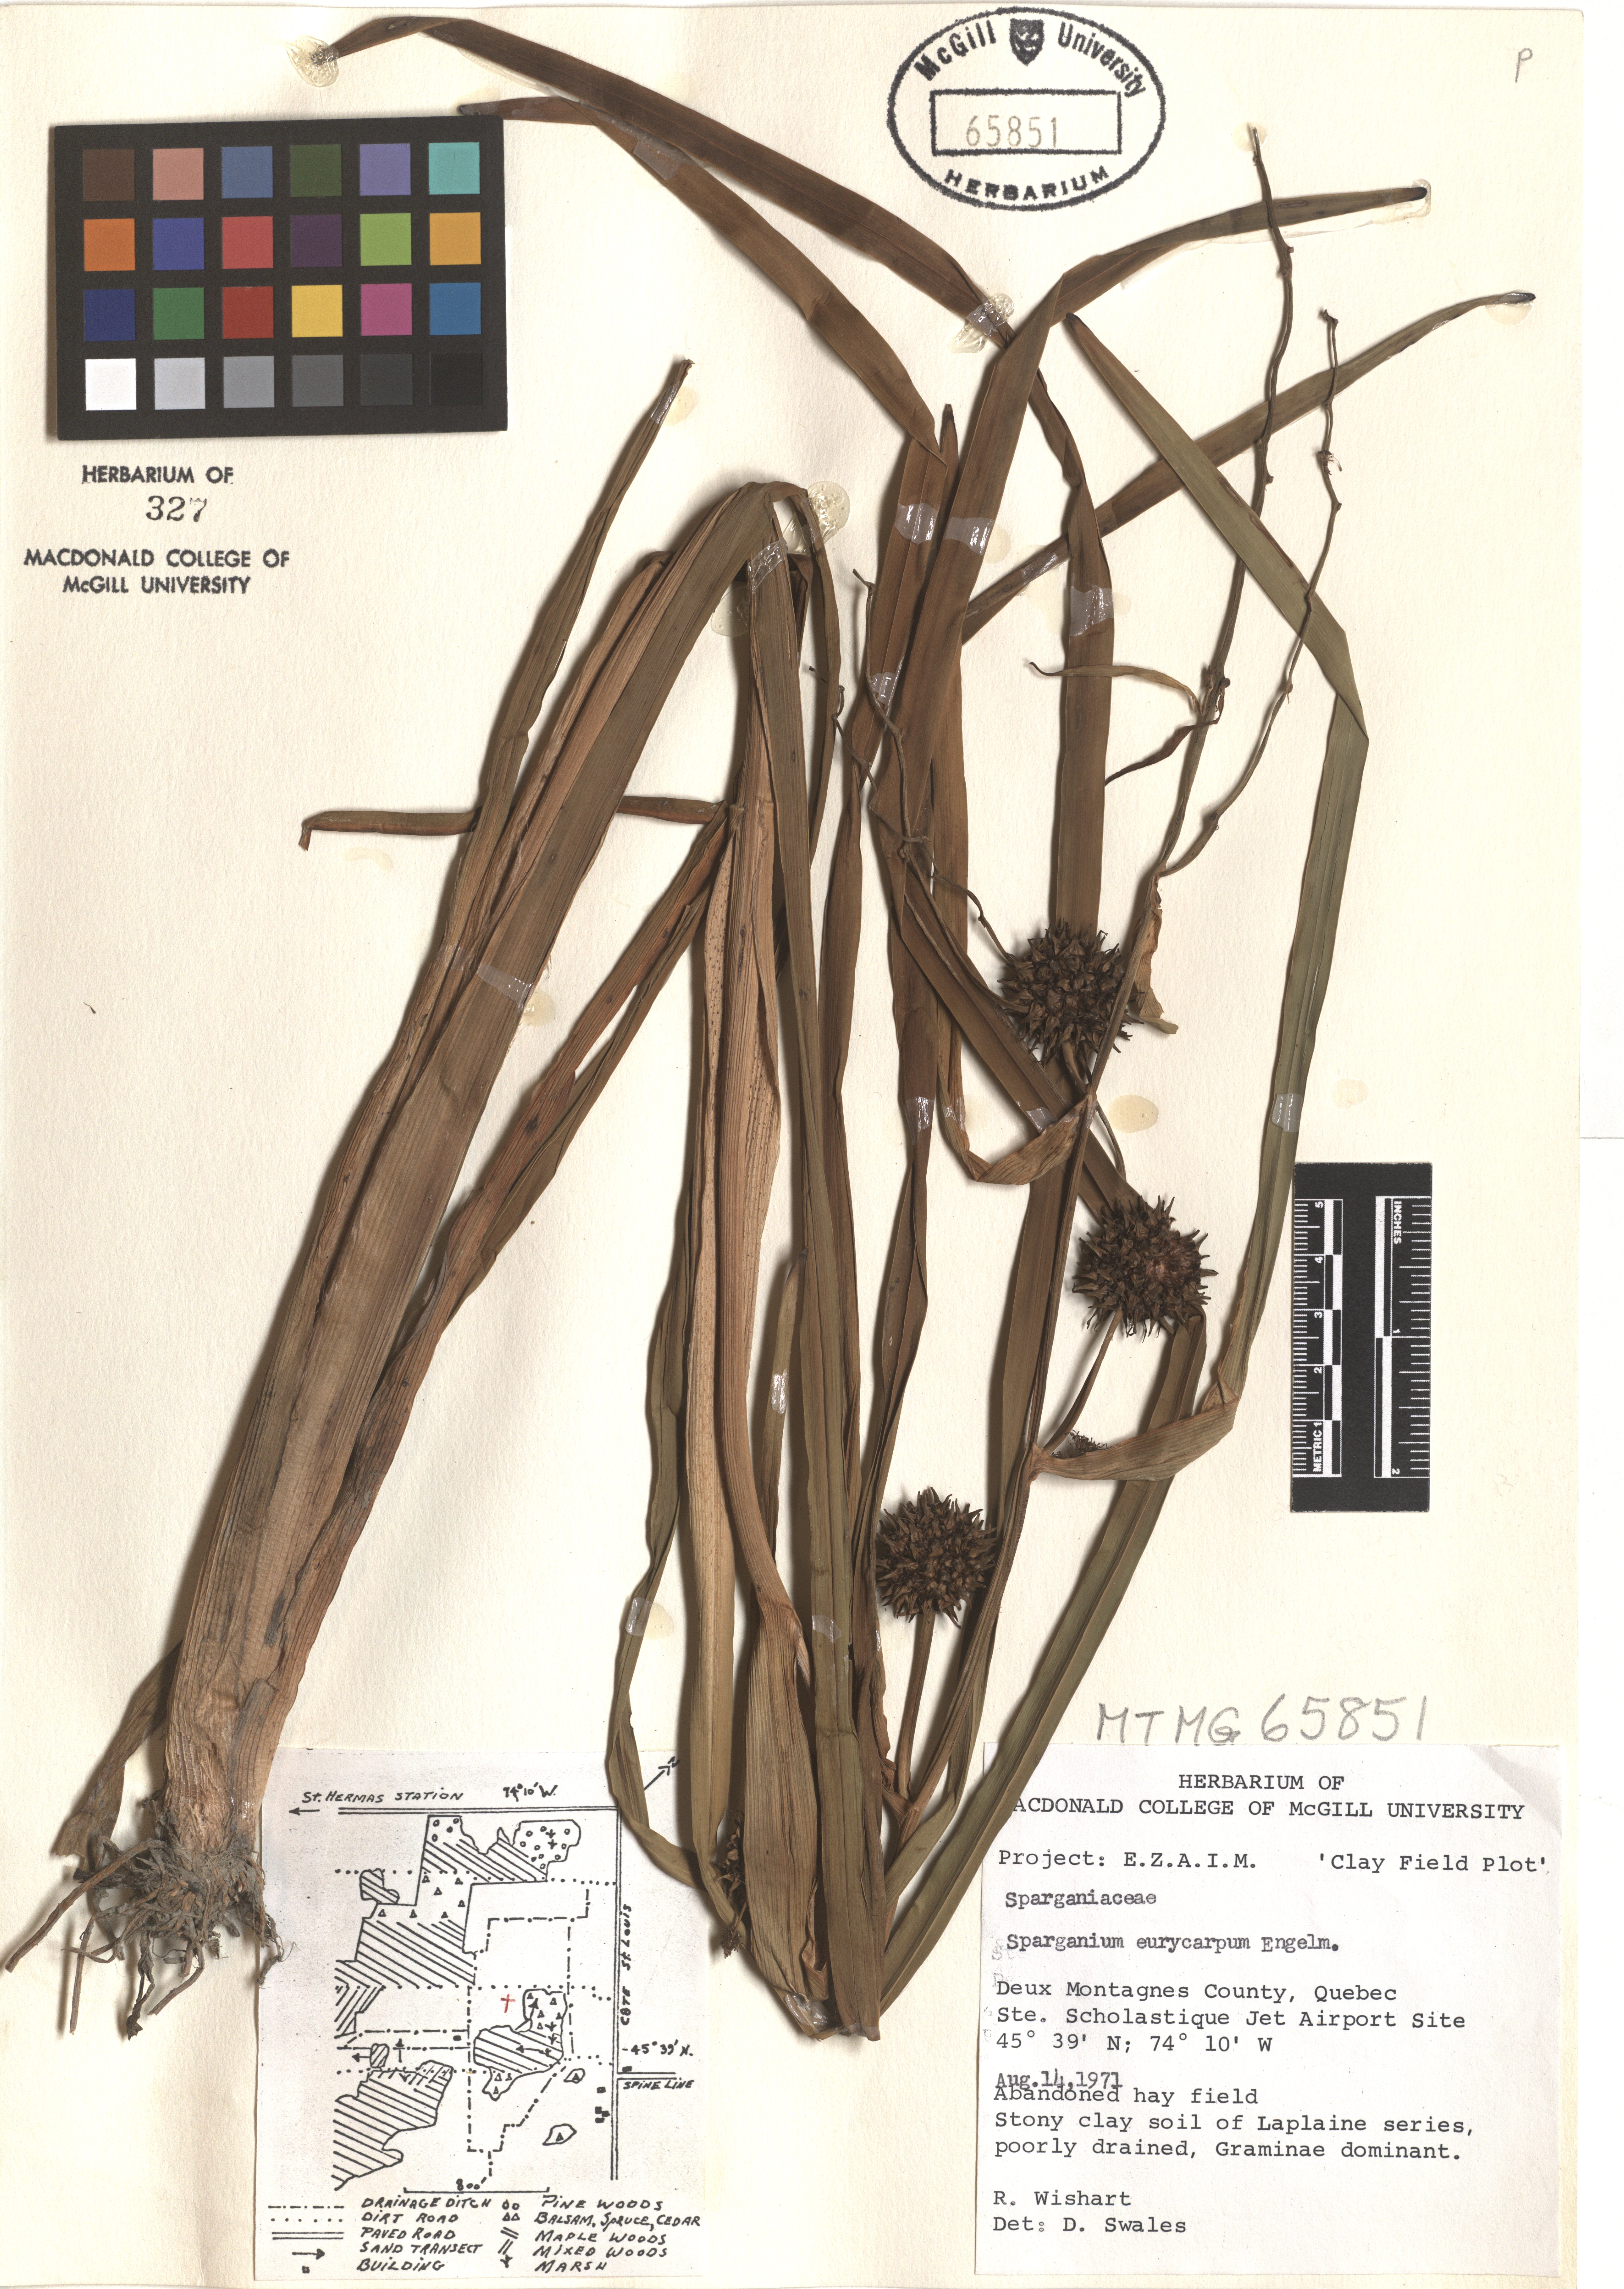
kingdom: Plantae
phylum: Tracheophyta
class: Liliopsida
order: Poales
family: Typhaceae
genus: Sparganium
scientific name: Sparganium eurycarpum
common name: Broad-fruited burreed
